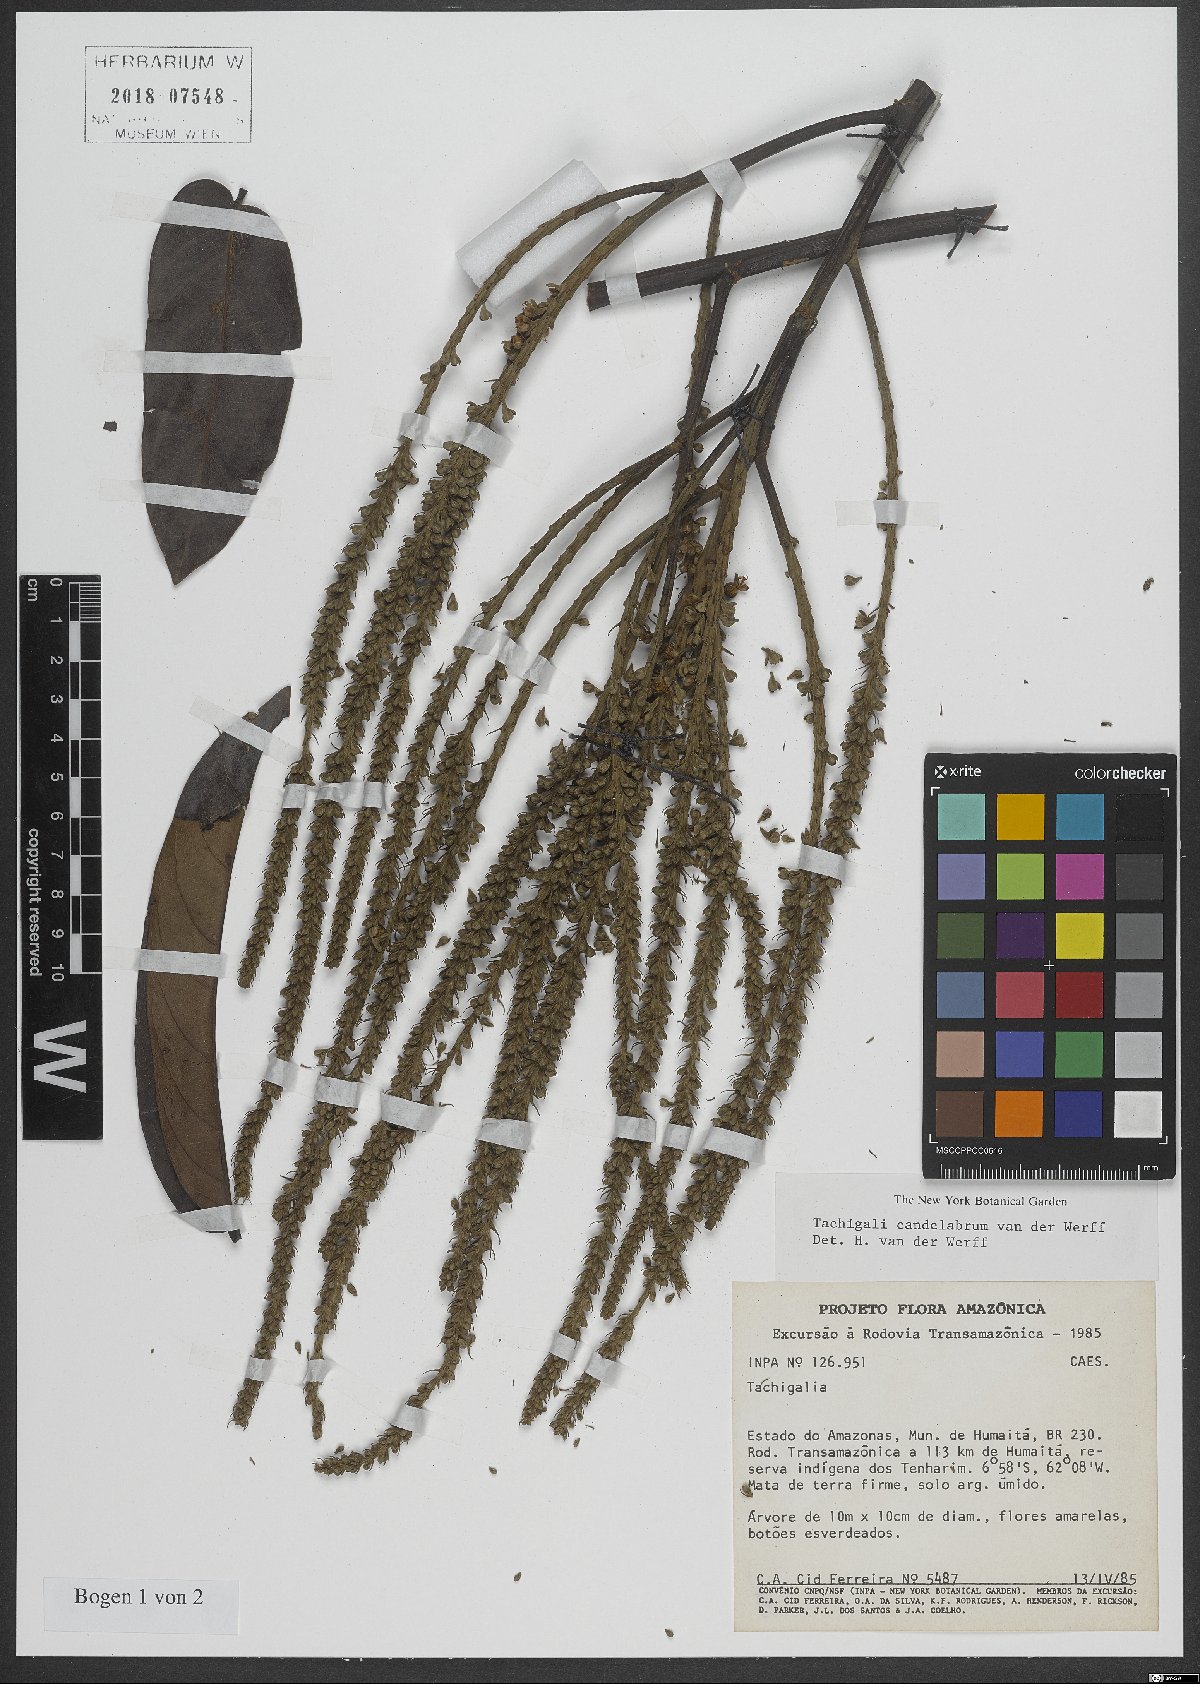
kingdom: Plantae
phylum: Tracheophyta
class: Magnoliopsida
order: Fabales
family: Fabaceae
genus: Tachigali
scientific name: Tachigali candelabrum
